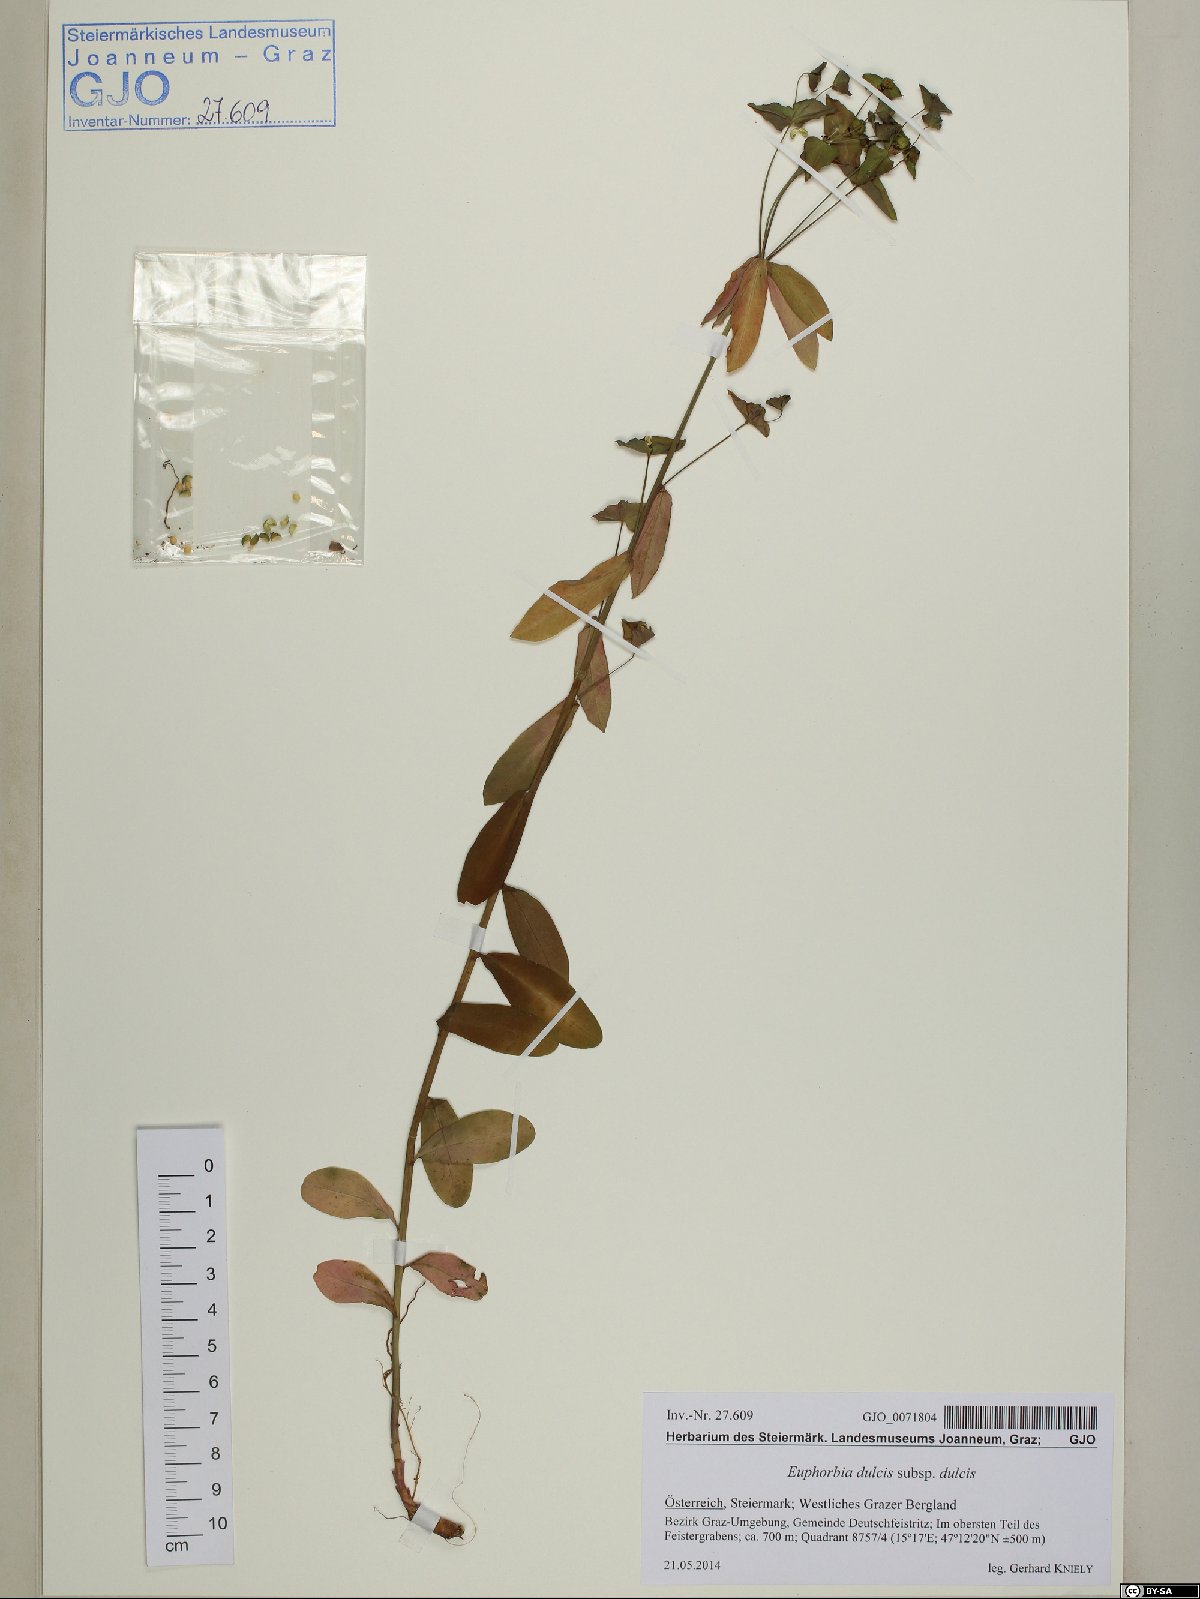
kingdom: Plantae
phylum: Tracheophyta
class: Magnoliopsida
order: Malpighiales
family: Euphorbiaceae
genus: Euphorbia
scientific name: Euphorbia dulcis
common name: Sweet spurge
